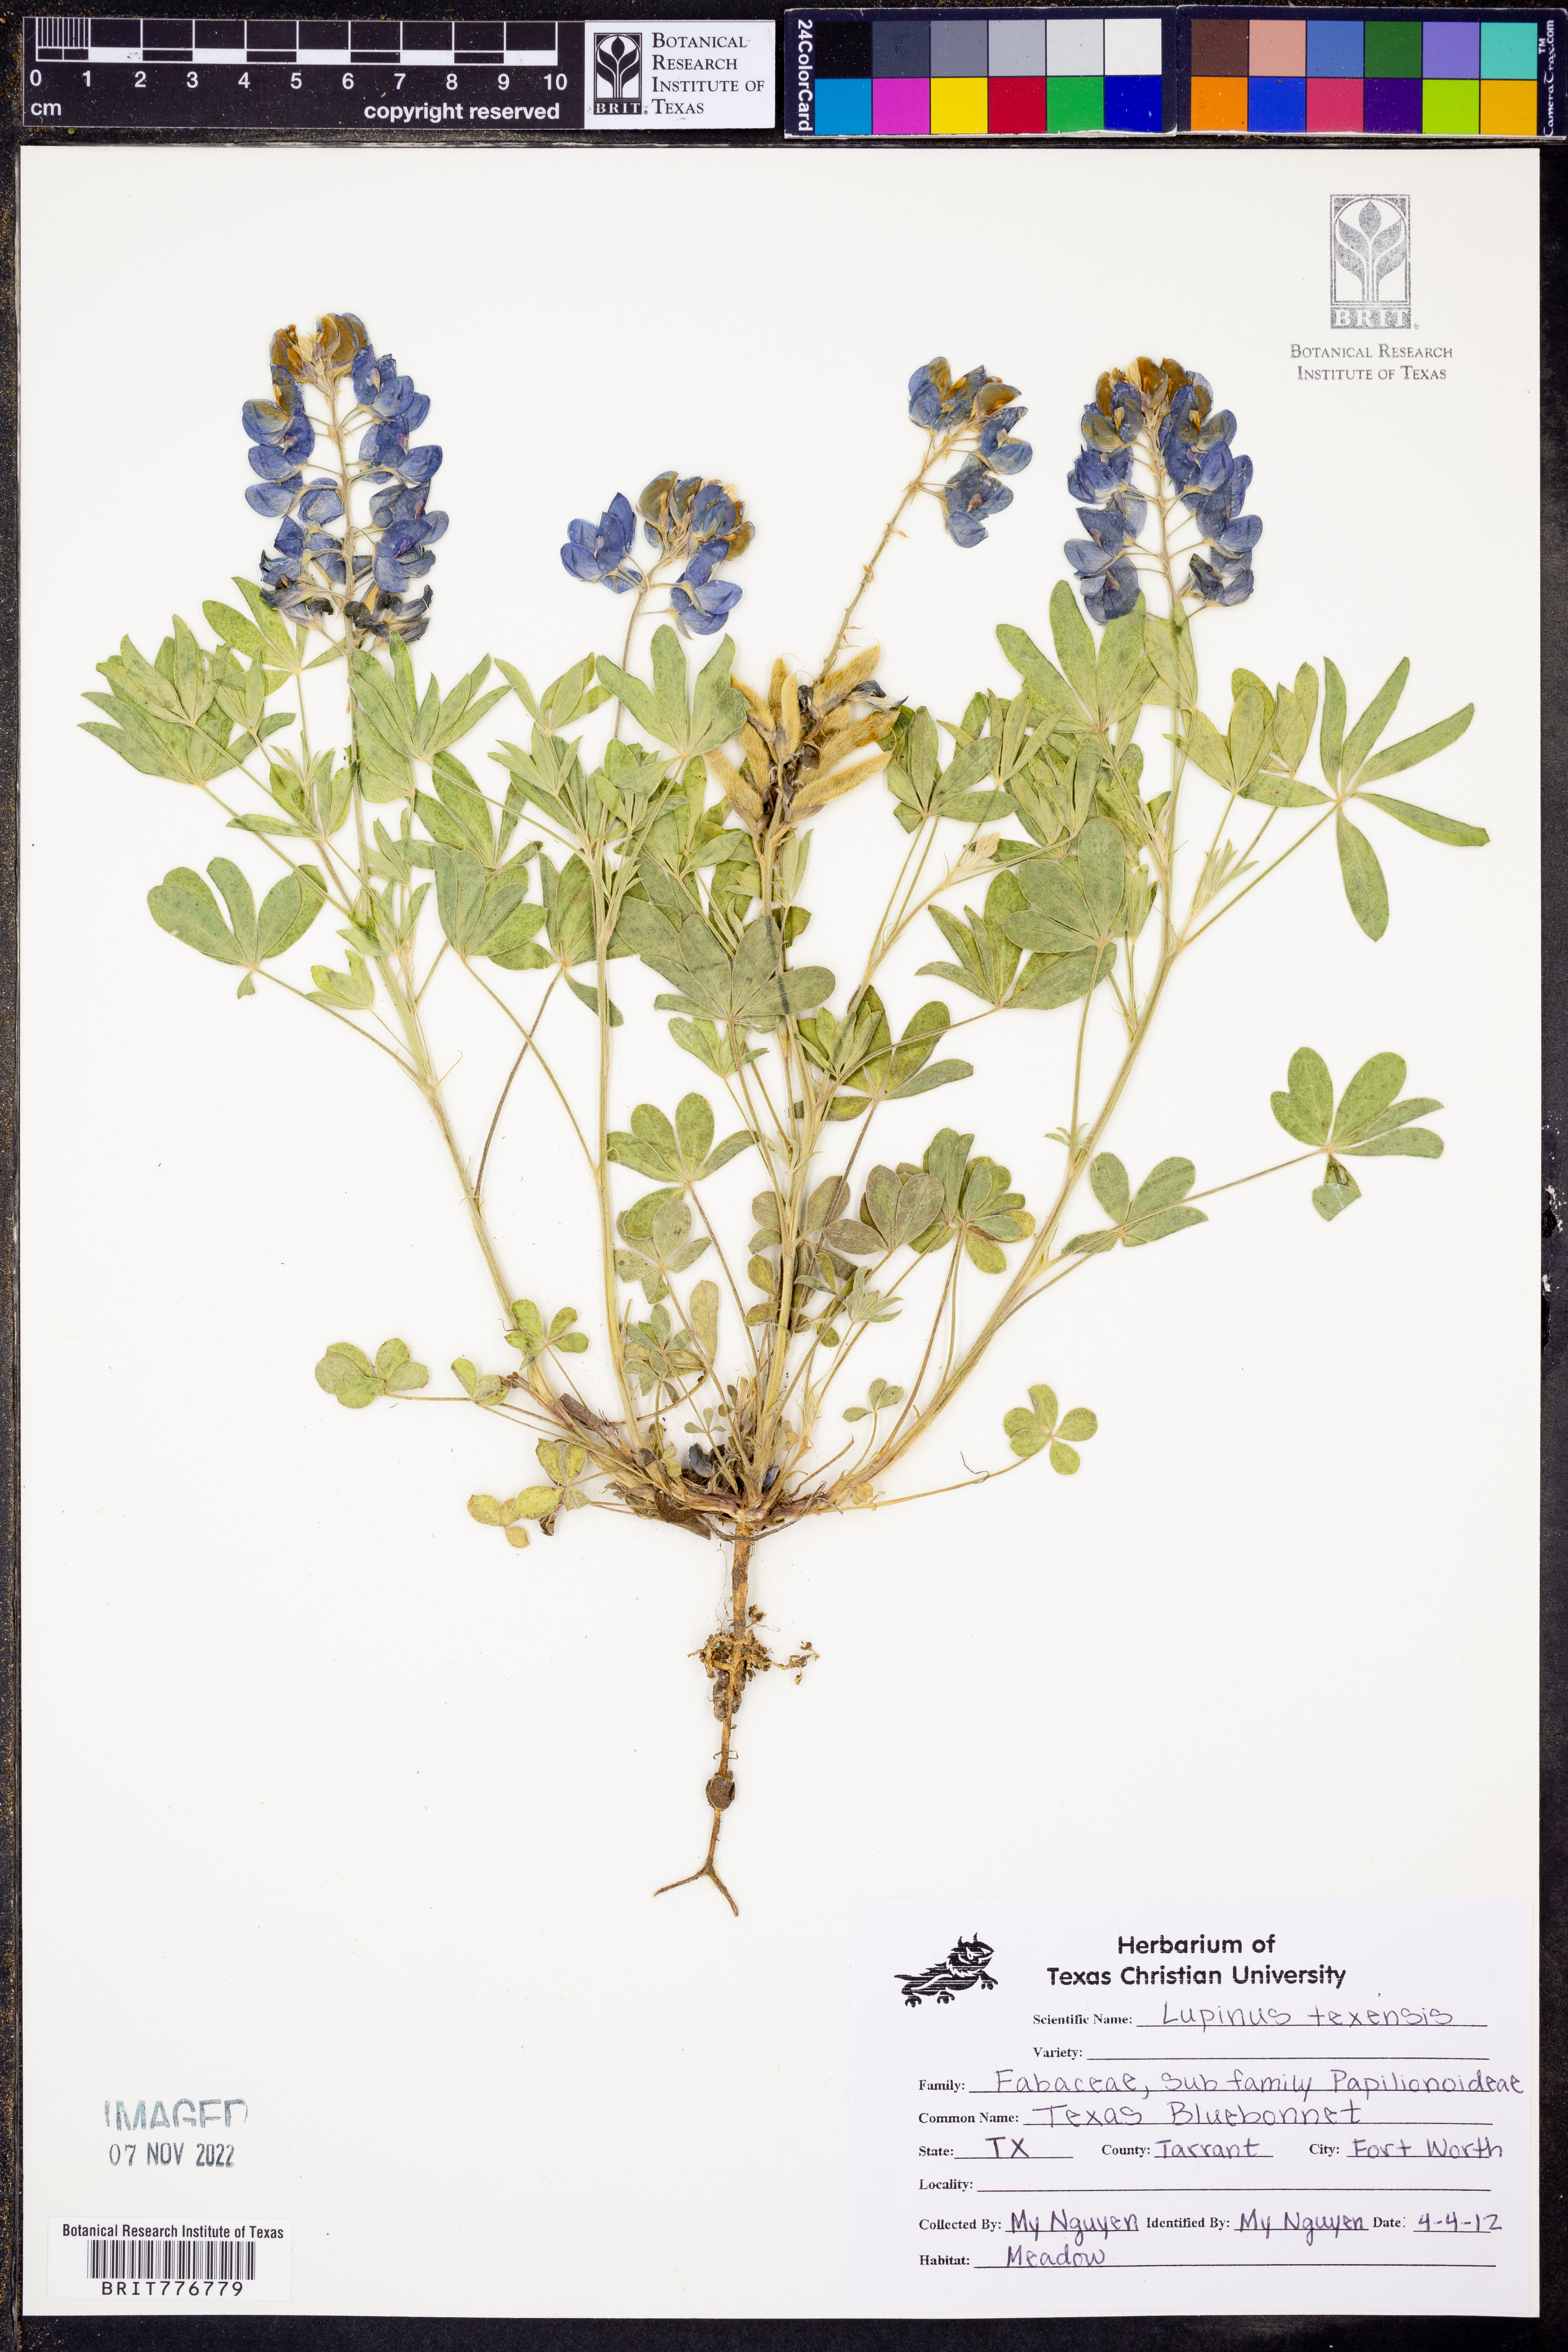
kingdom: Plantae
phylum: Tracheophyta
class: Magnoliopsida
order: Fabales
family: Fabaceae
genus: Lupinus
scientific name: Lupinus texensis
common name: Texas bluebonnet
